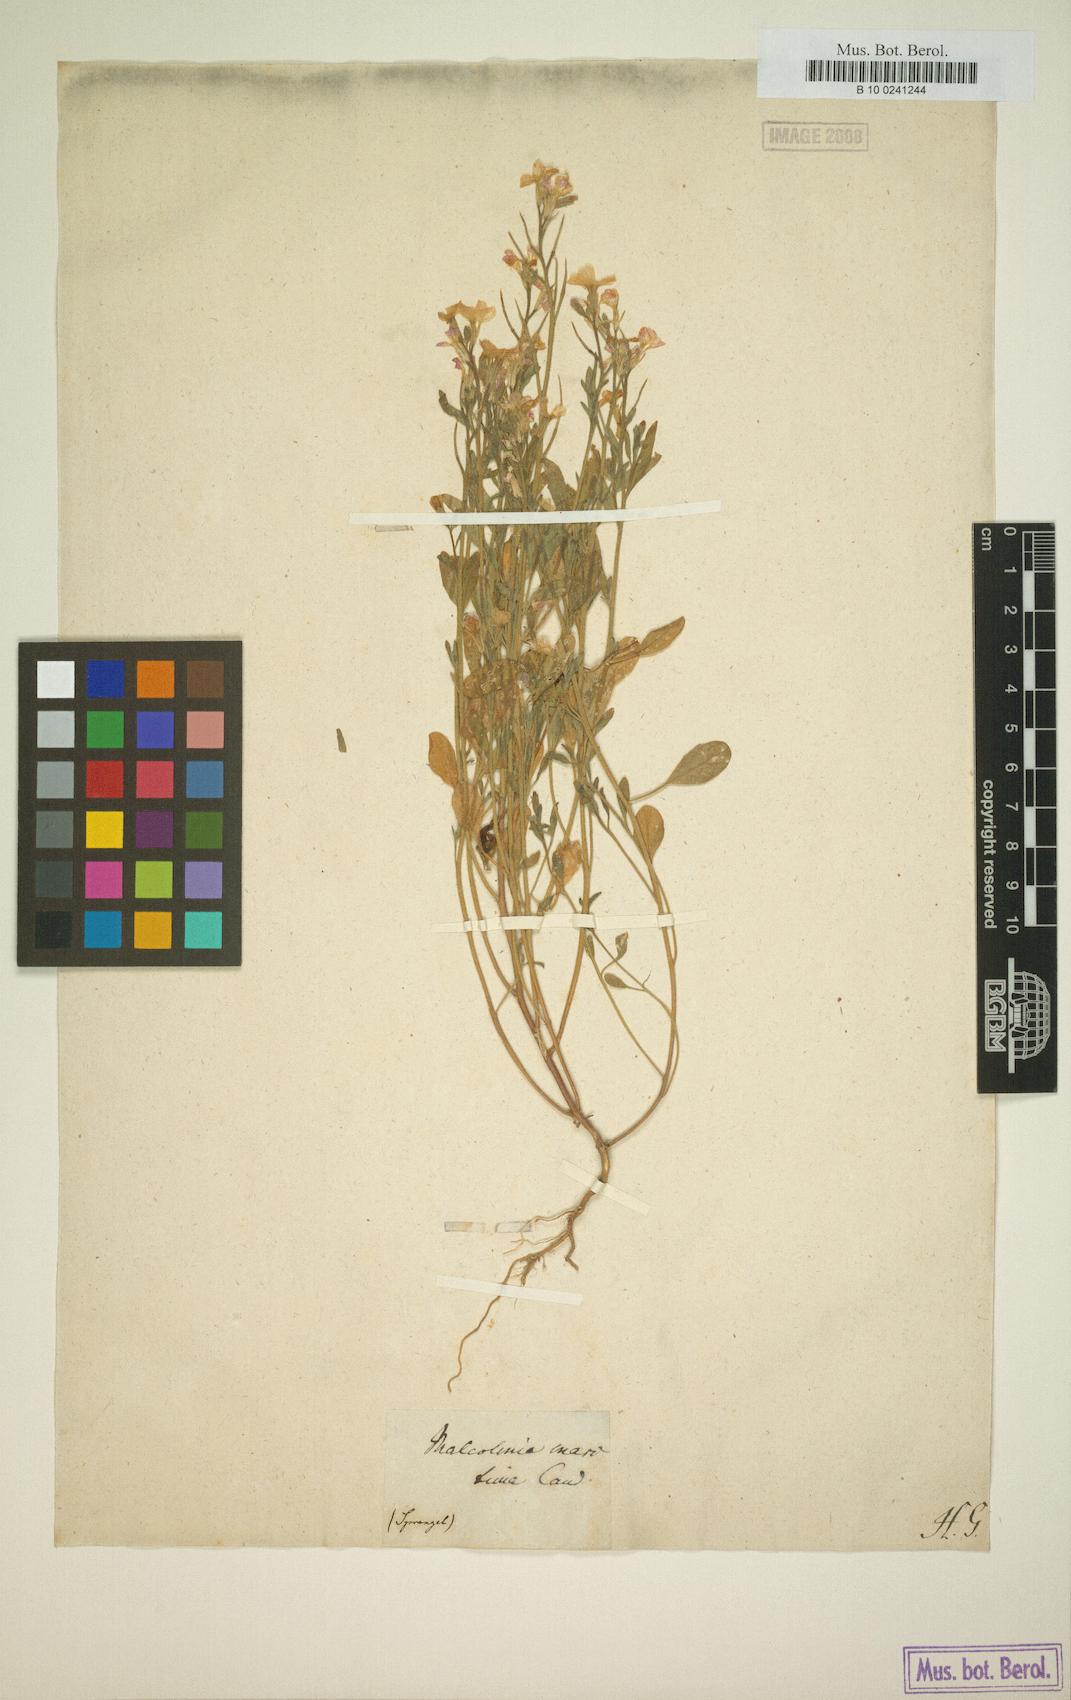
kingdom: Plantae
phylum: Tracheophyta
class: Magnoliopsida
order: Brassicales
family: Brassicaceae
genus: Malcolmia
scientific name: Malcolmia maritima
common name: Virginia stock
